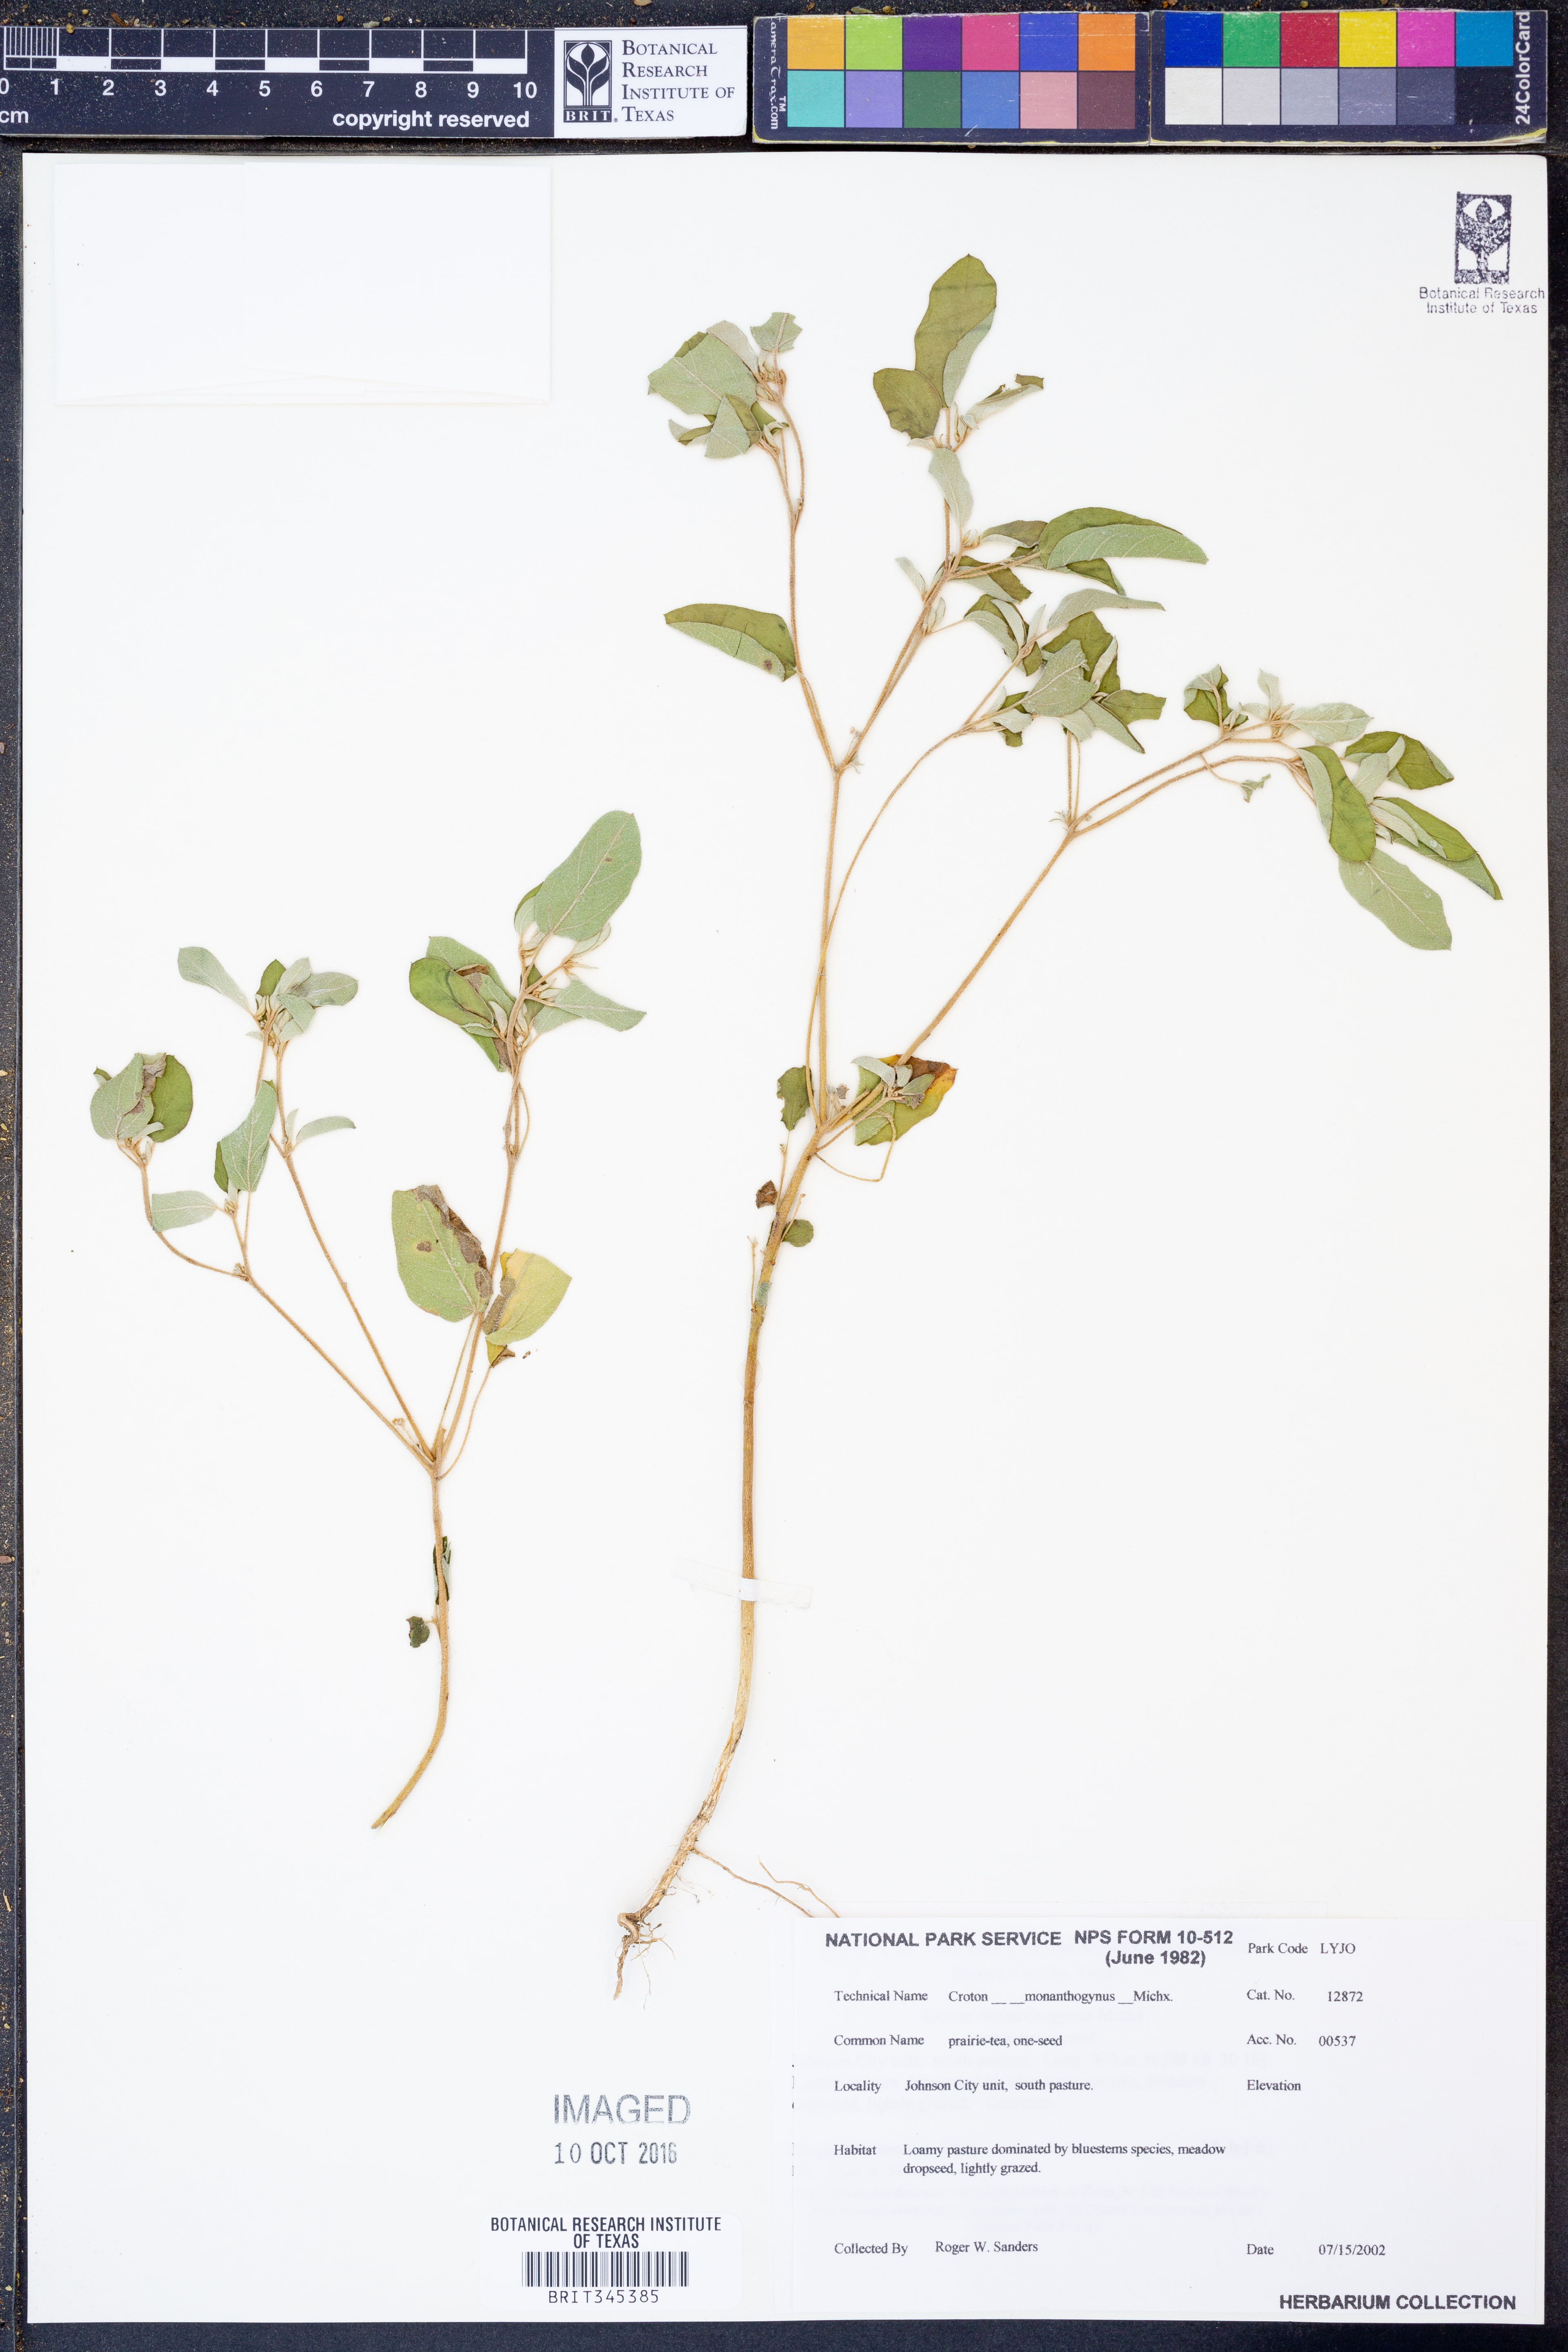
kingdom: Plantae
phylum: Tracheophyta
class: Magnoliopsida
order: Malpighiales
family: Euphorbiaceae
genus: Croton
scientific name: Croton monanthogynus
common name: One-seed croton
